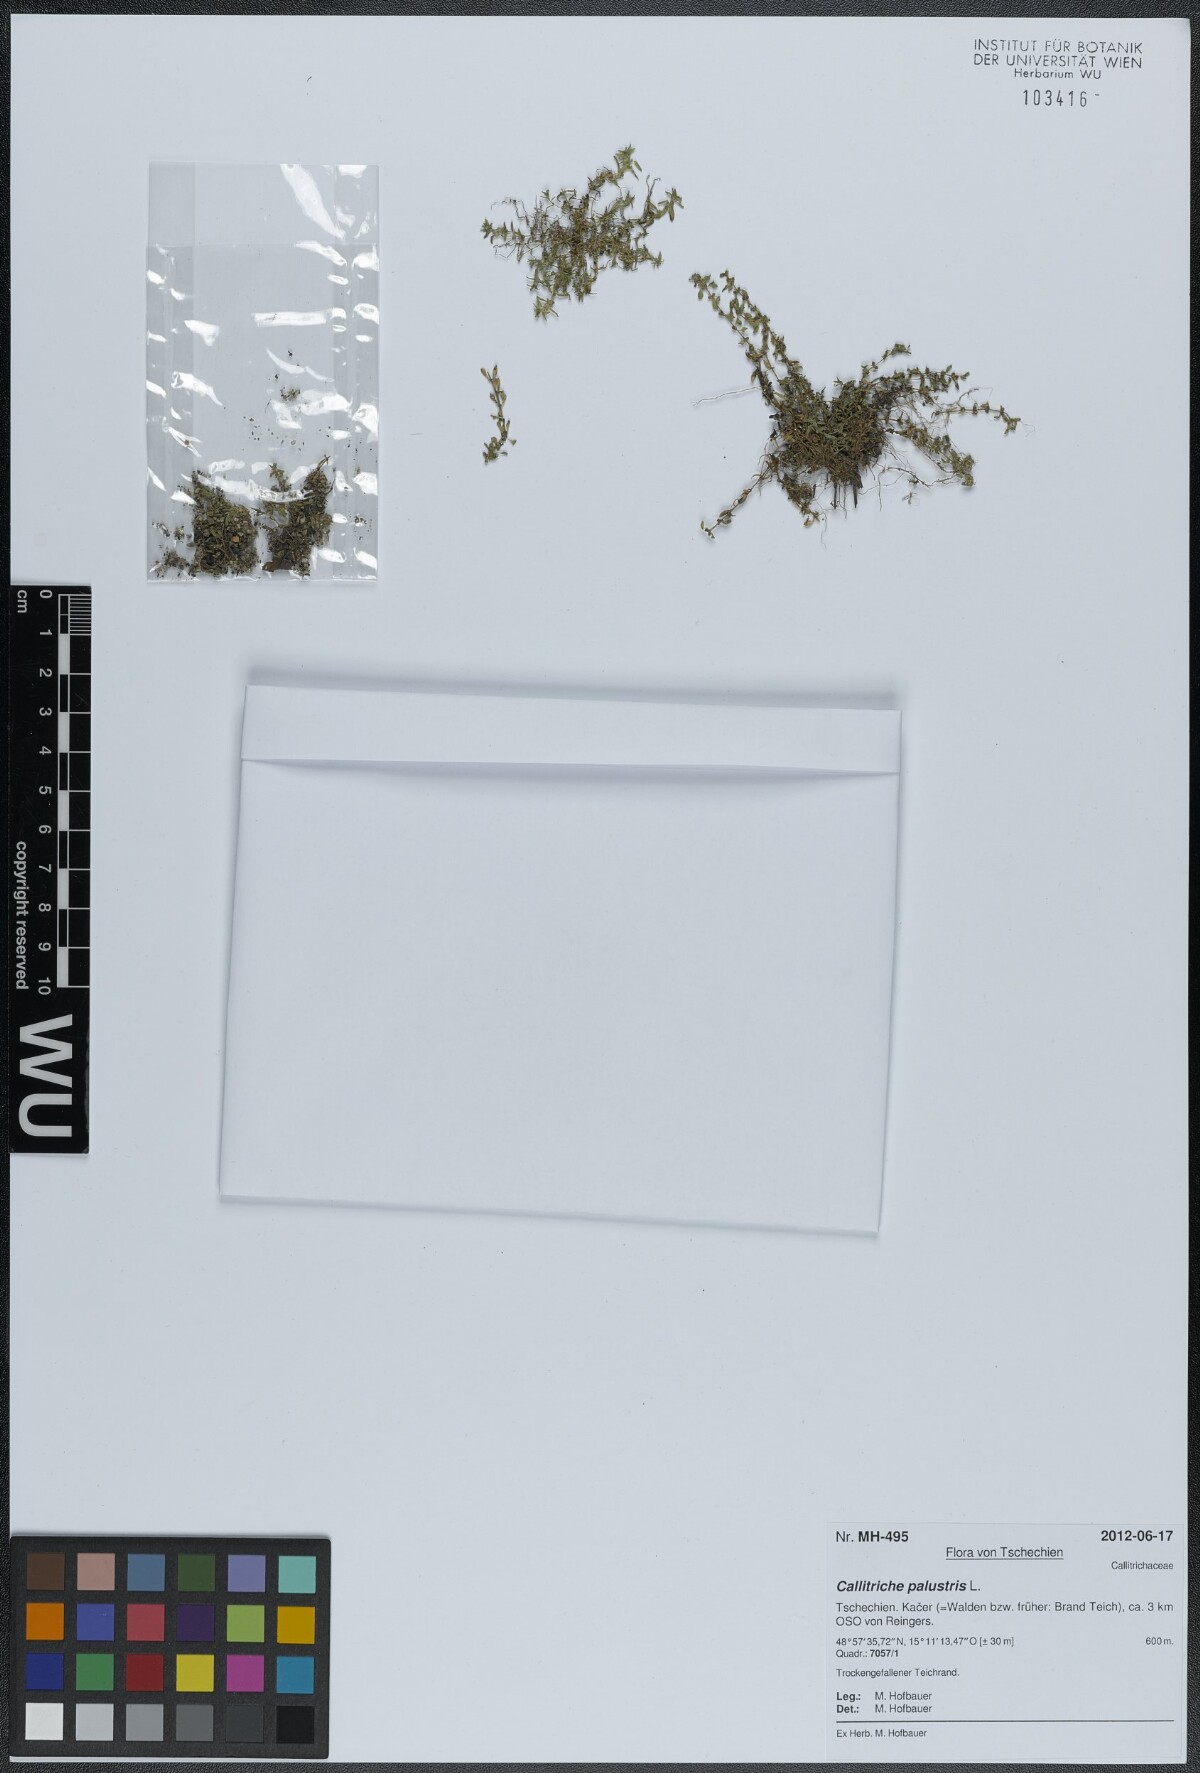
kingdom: Plantae
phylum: Tracheophyta
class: Magnoliopsida
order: Lamiales
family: Plantaginaceae
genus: Callitriche
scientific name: Callitriche palustris
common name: Spring water-starwort
